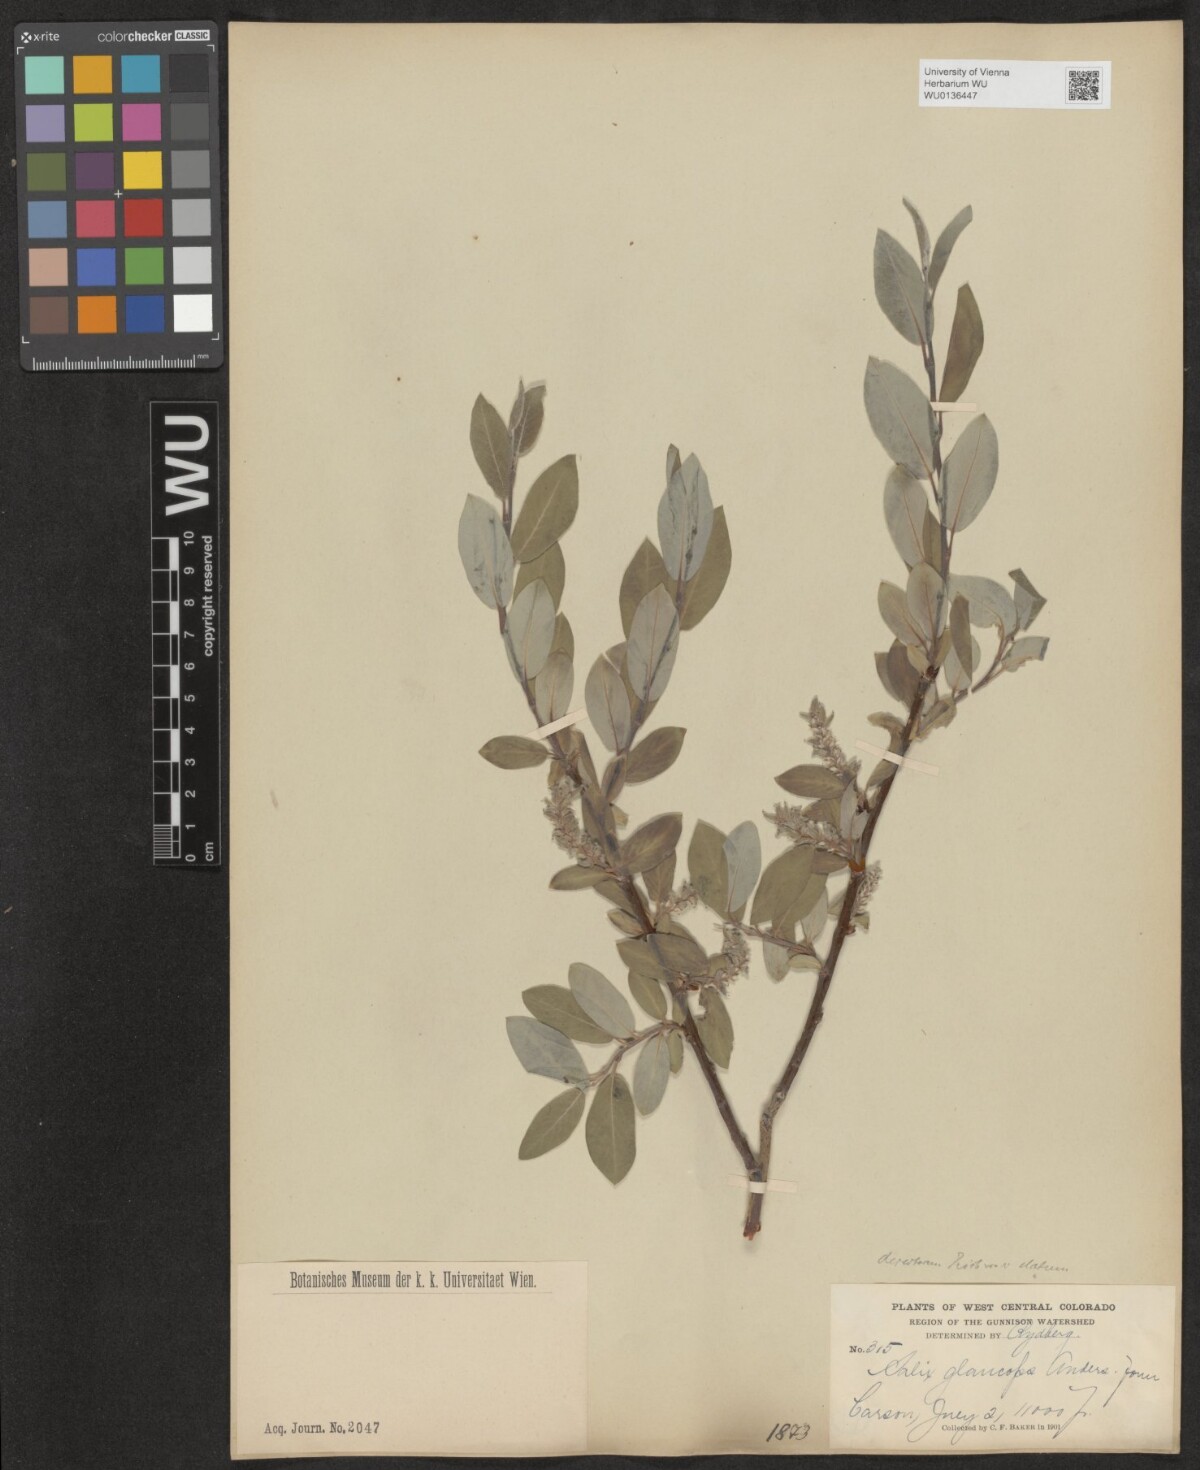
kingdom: Plantae
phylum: Tracheophyta
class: Magnoliopsida
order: Malpighiales
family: Salicaceae
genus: Salix
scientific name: Salix glauca
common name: Glaucous willow
